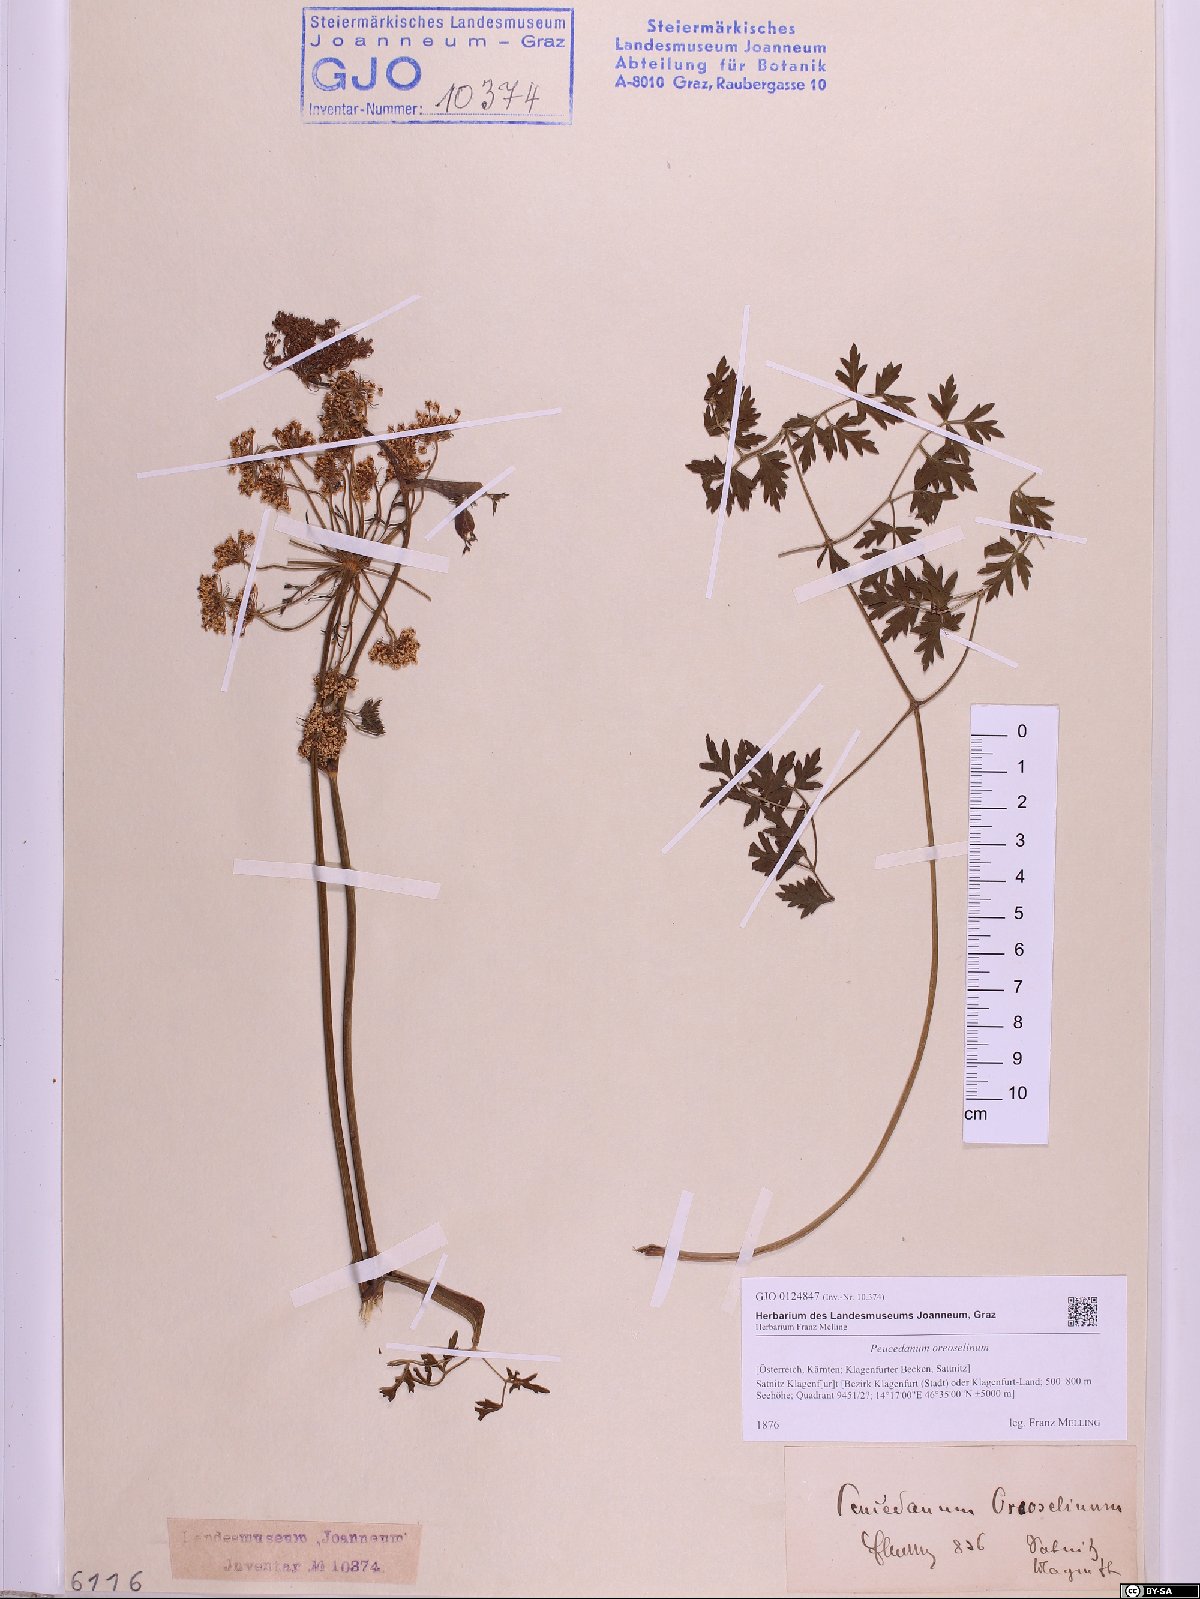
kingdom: Plantae
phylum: Tracheophyta
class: Magnoliopsida
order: Apiales
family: Apiaceae
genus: Oreoselinum
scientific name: Oreoselinum nigrum
